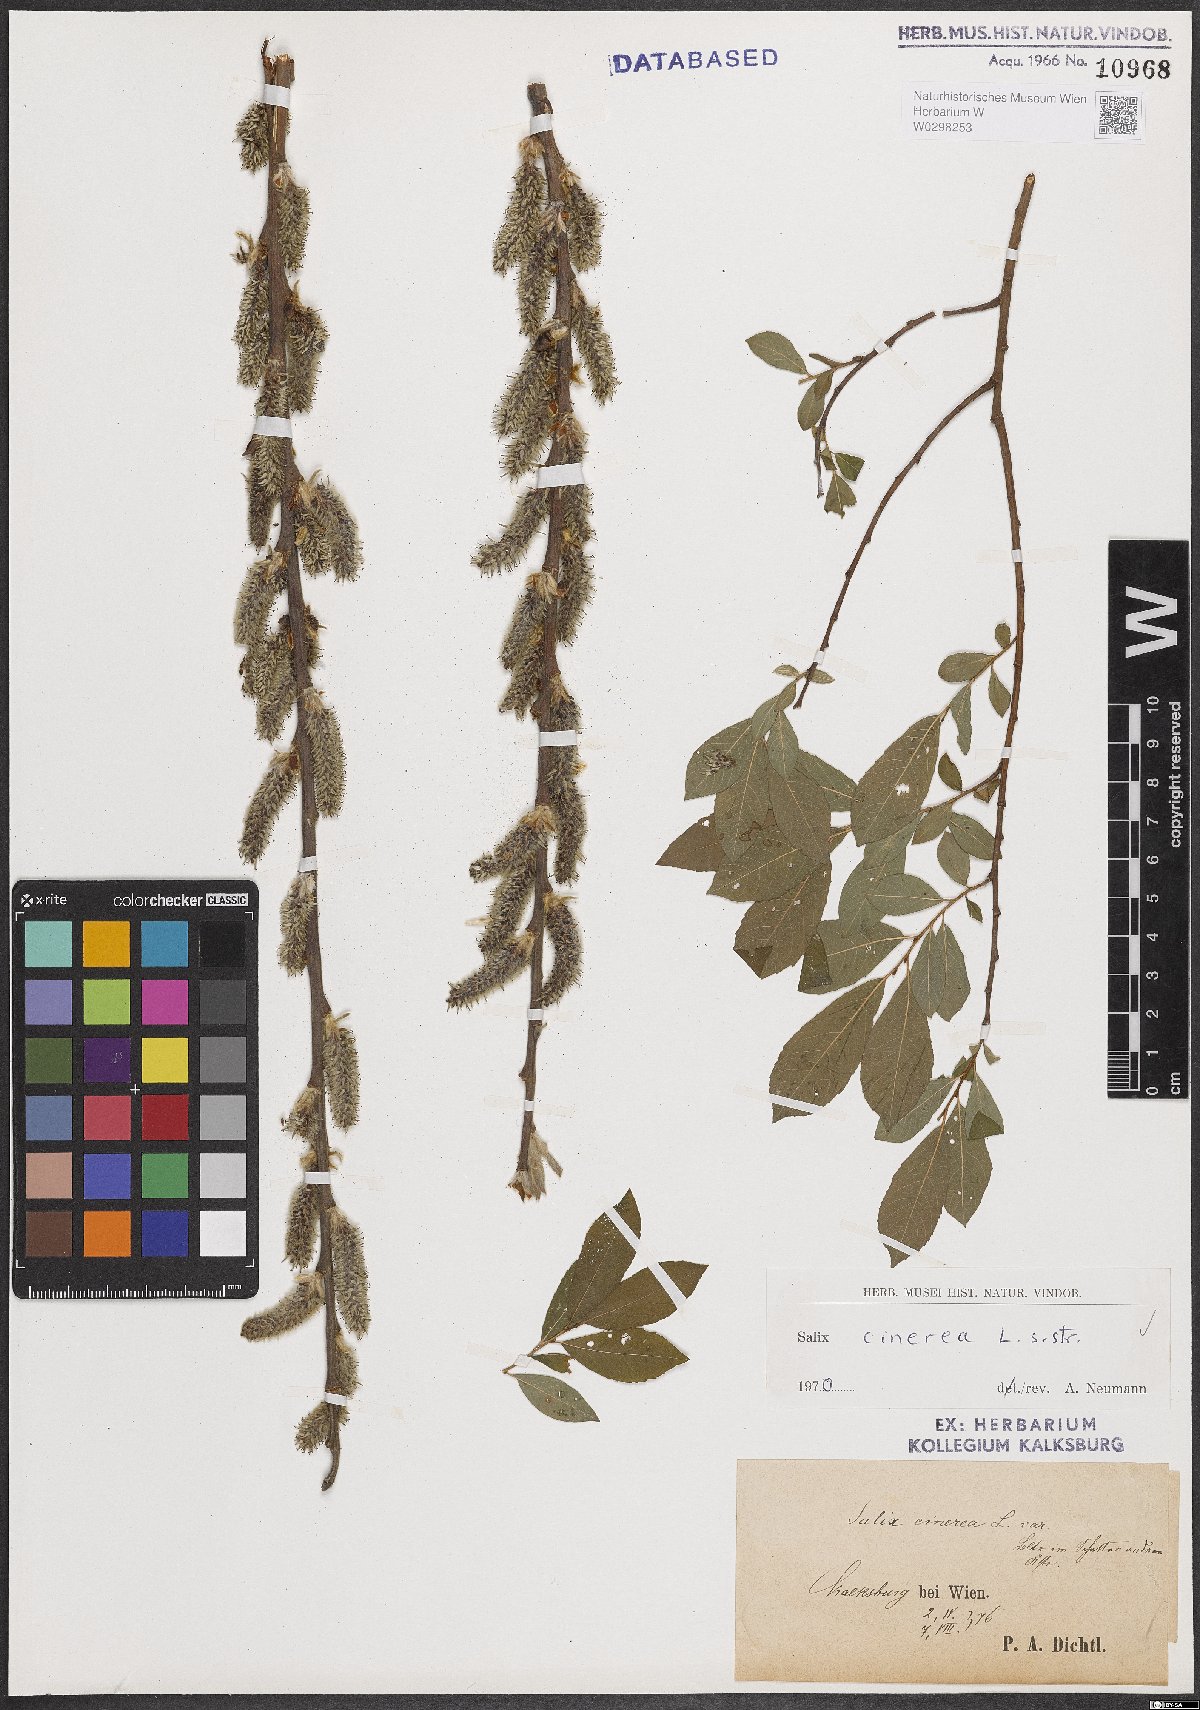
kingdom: Plantae
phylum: Tracheophyta
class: Magnoliopsida
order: Malpighiales
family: Salicaceae
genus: Salix
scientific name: Salix cinerea
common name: Common sallow
